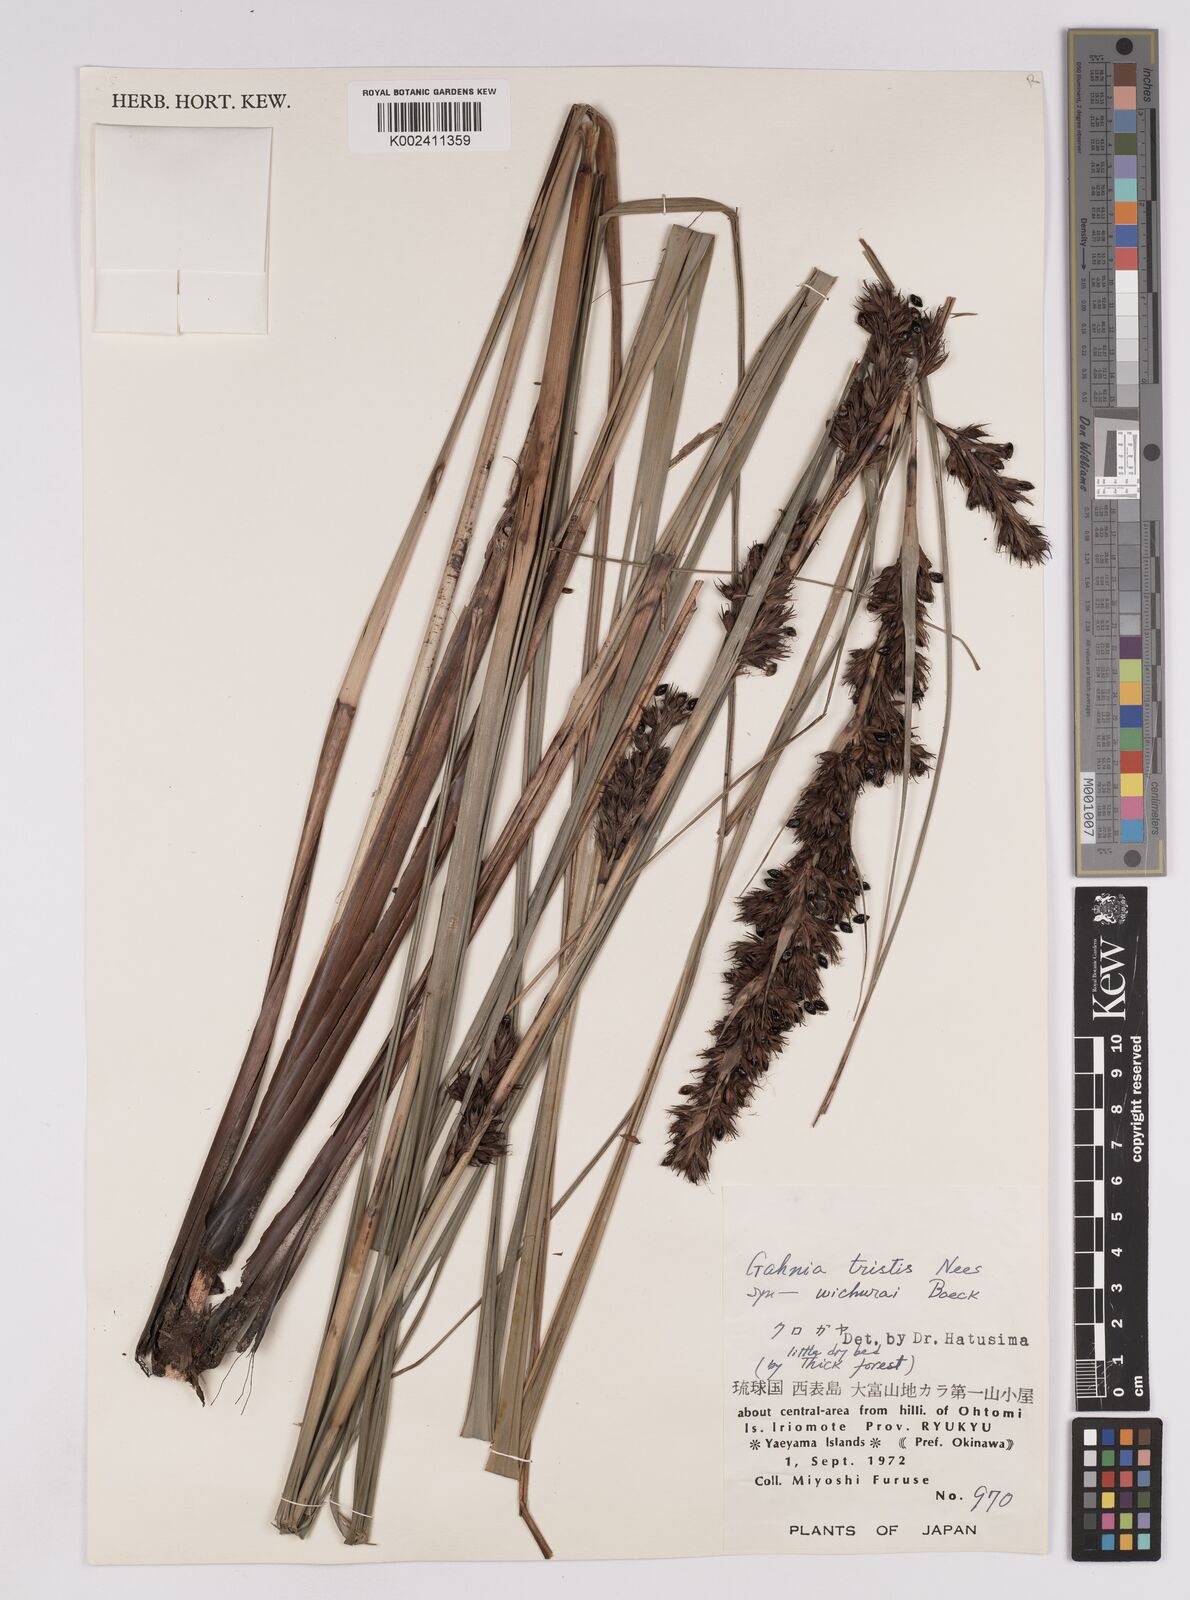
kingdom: Plantae
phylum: Tracheophyta
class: Liliopsida
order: Poales
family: Cyperaceae
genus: Gahnia
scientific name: Gahnia tristis
